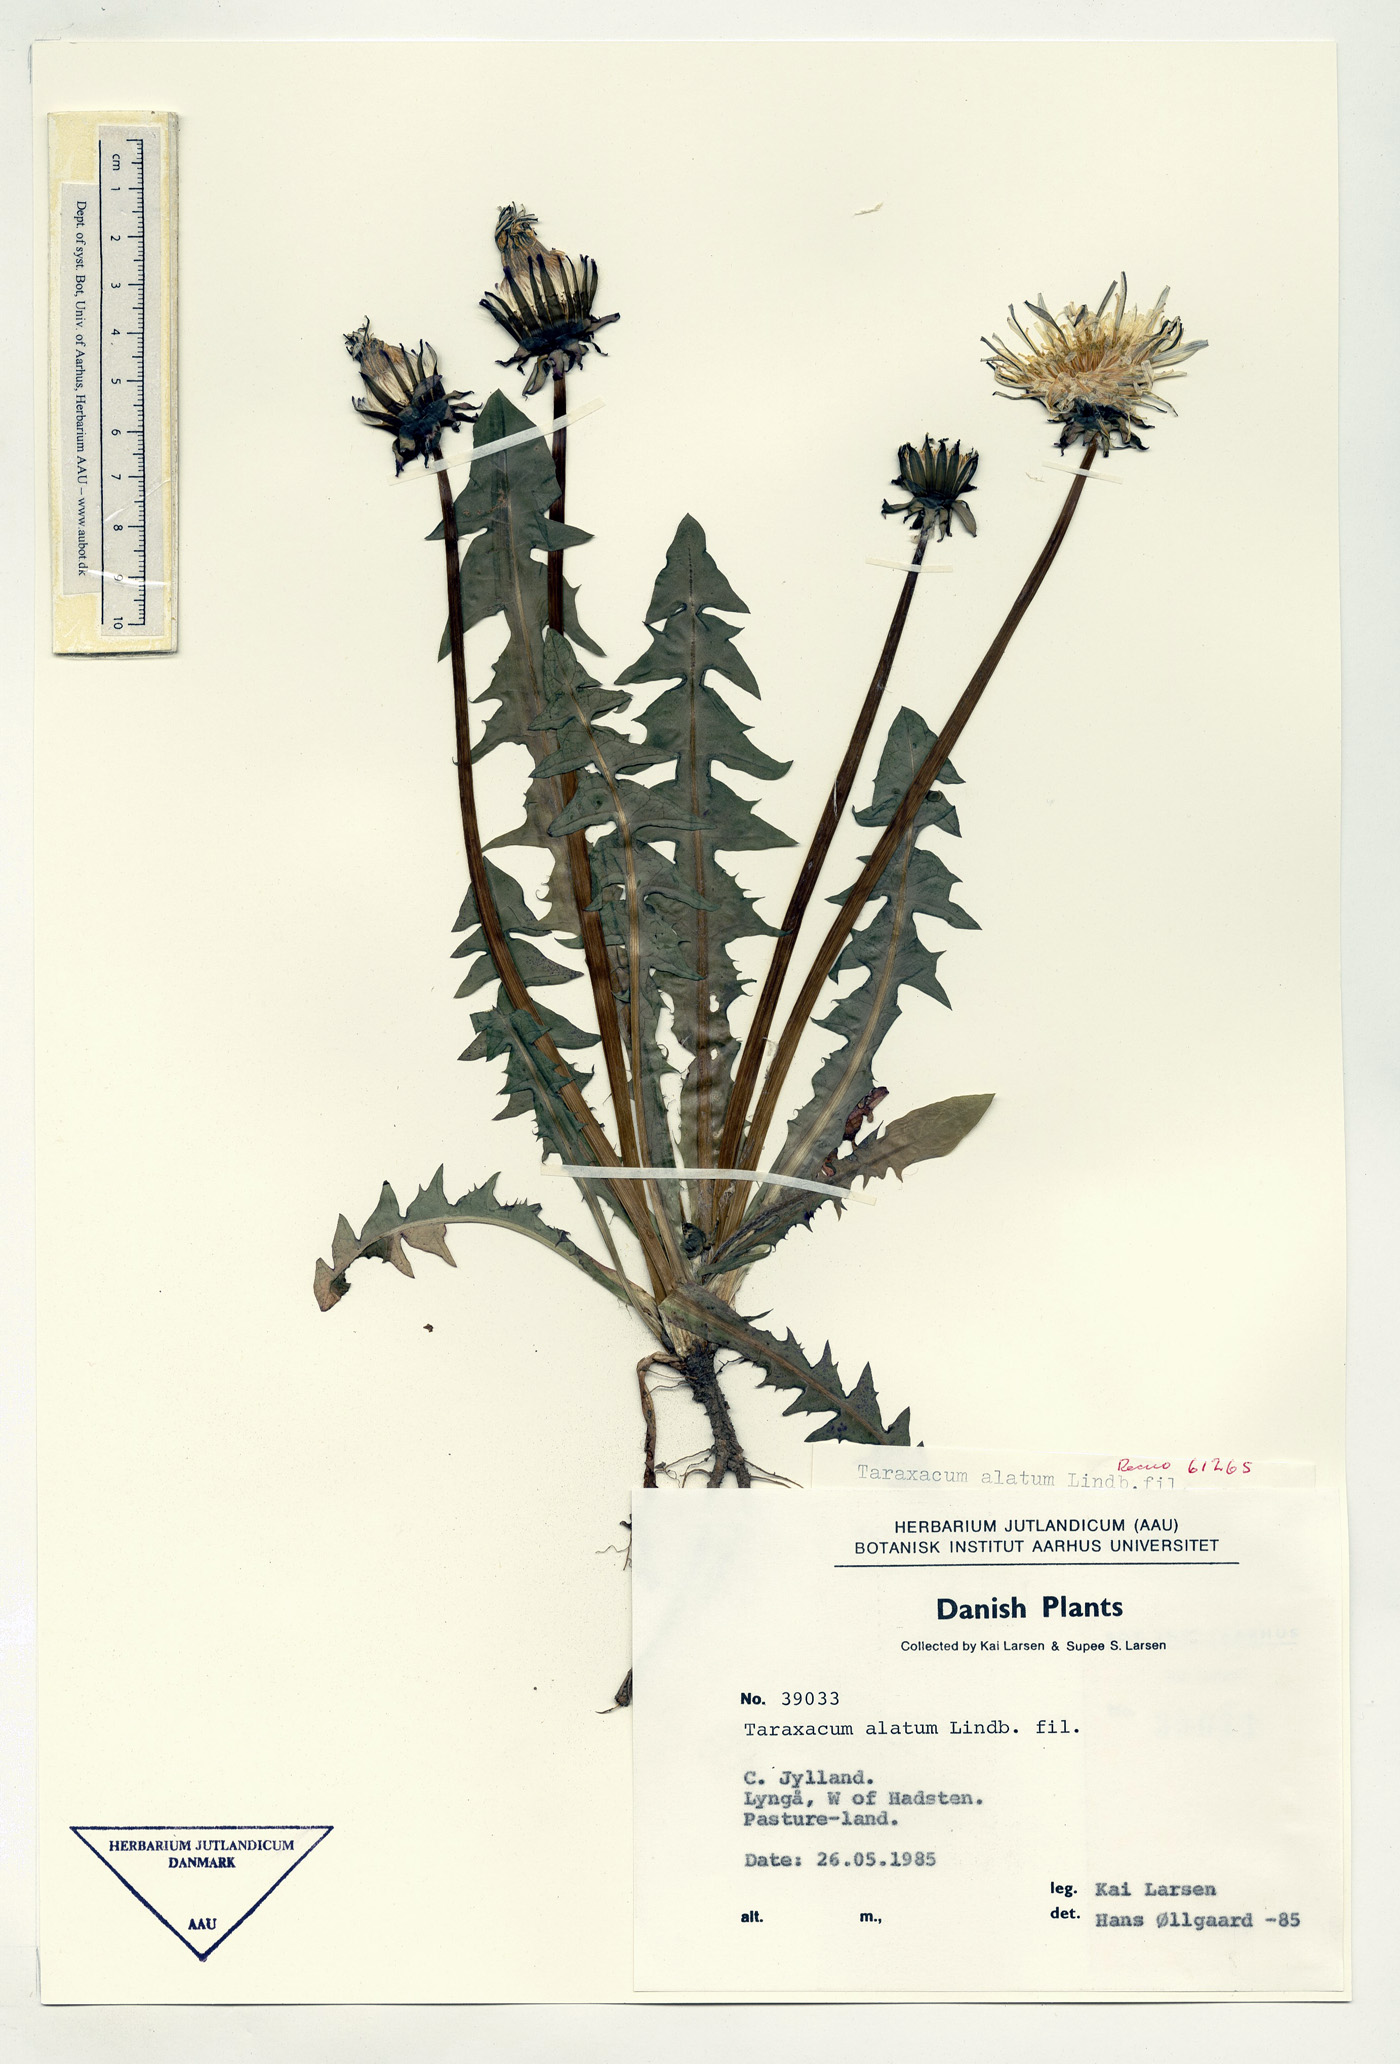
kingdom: Plantae
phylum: Tracheophyta
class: Magnoliopsida
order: Asterales
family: Asteraceae
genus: Taraxacum
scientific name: Taraxacum alatum
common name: Green dandelion
